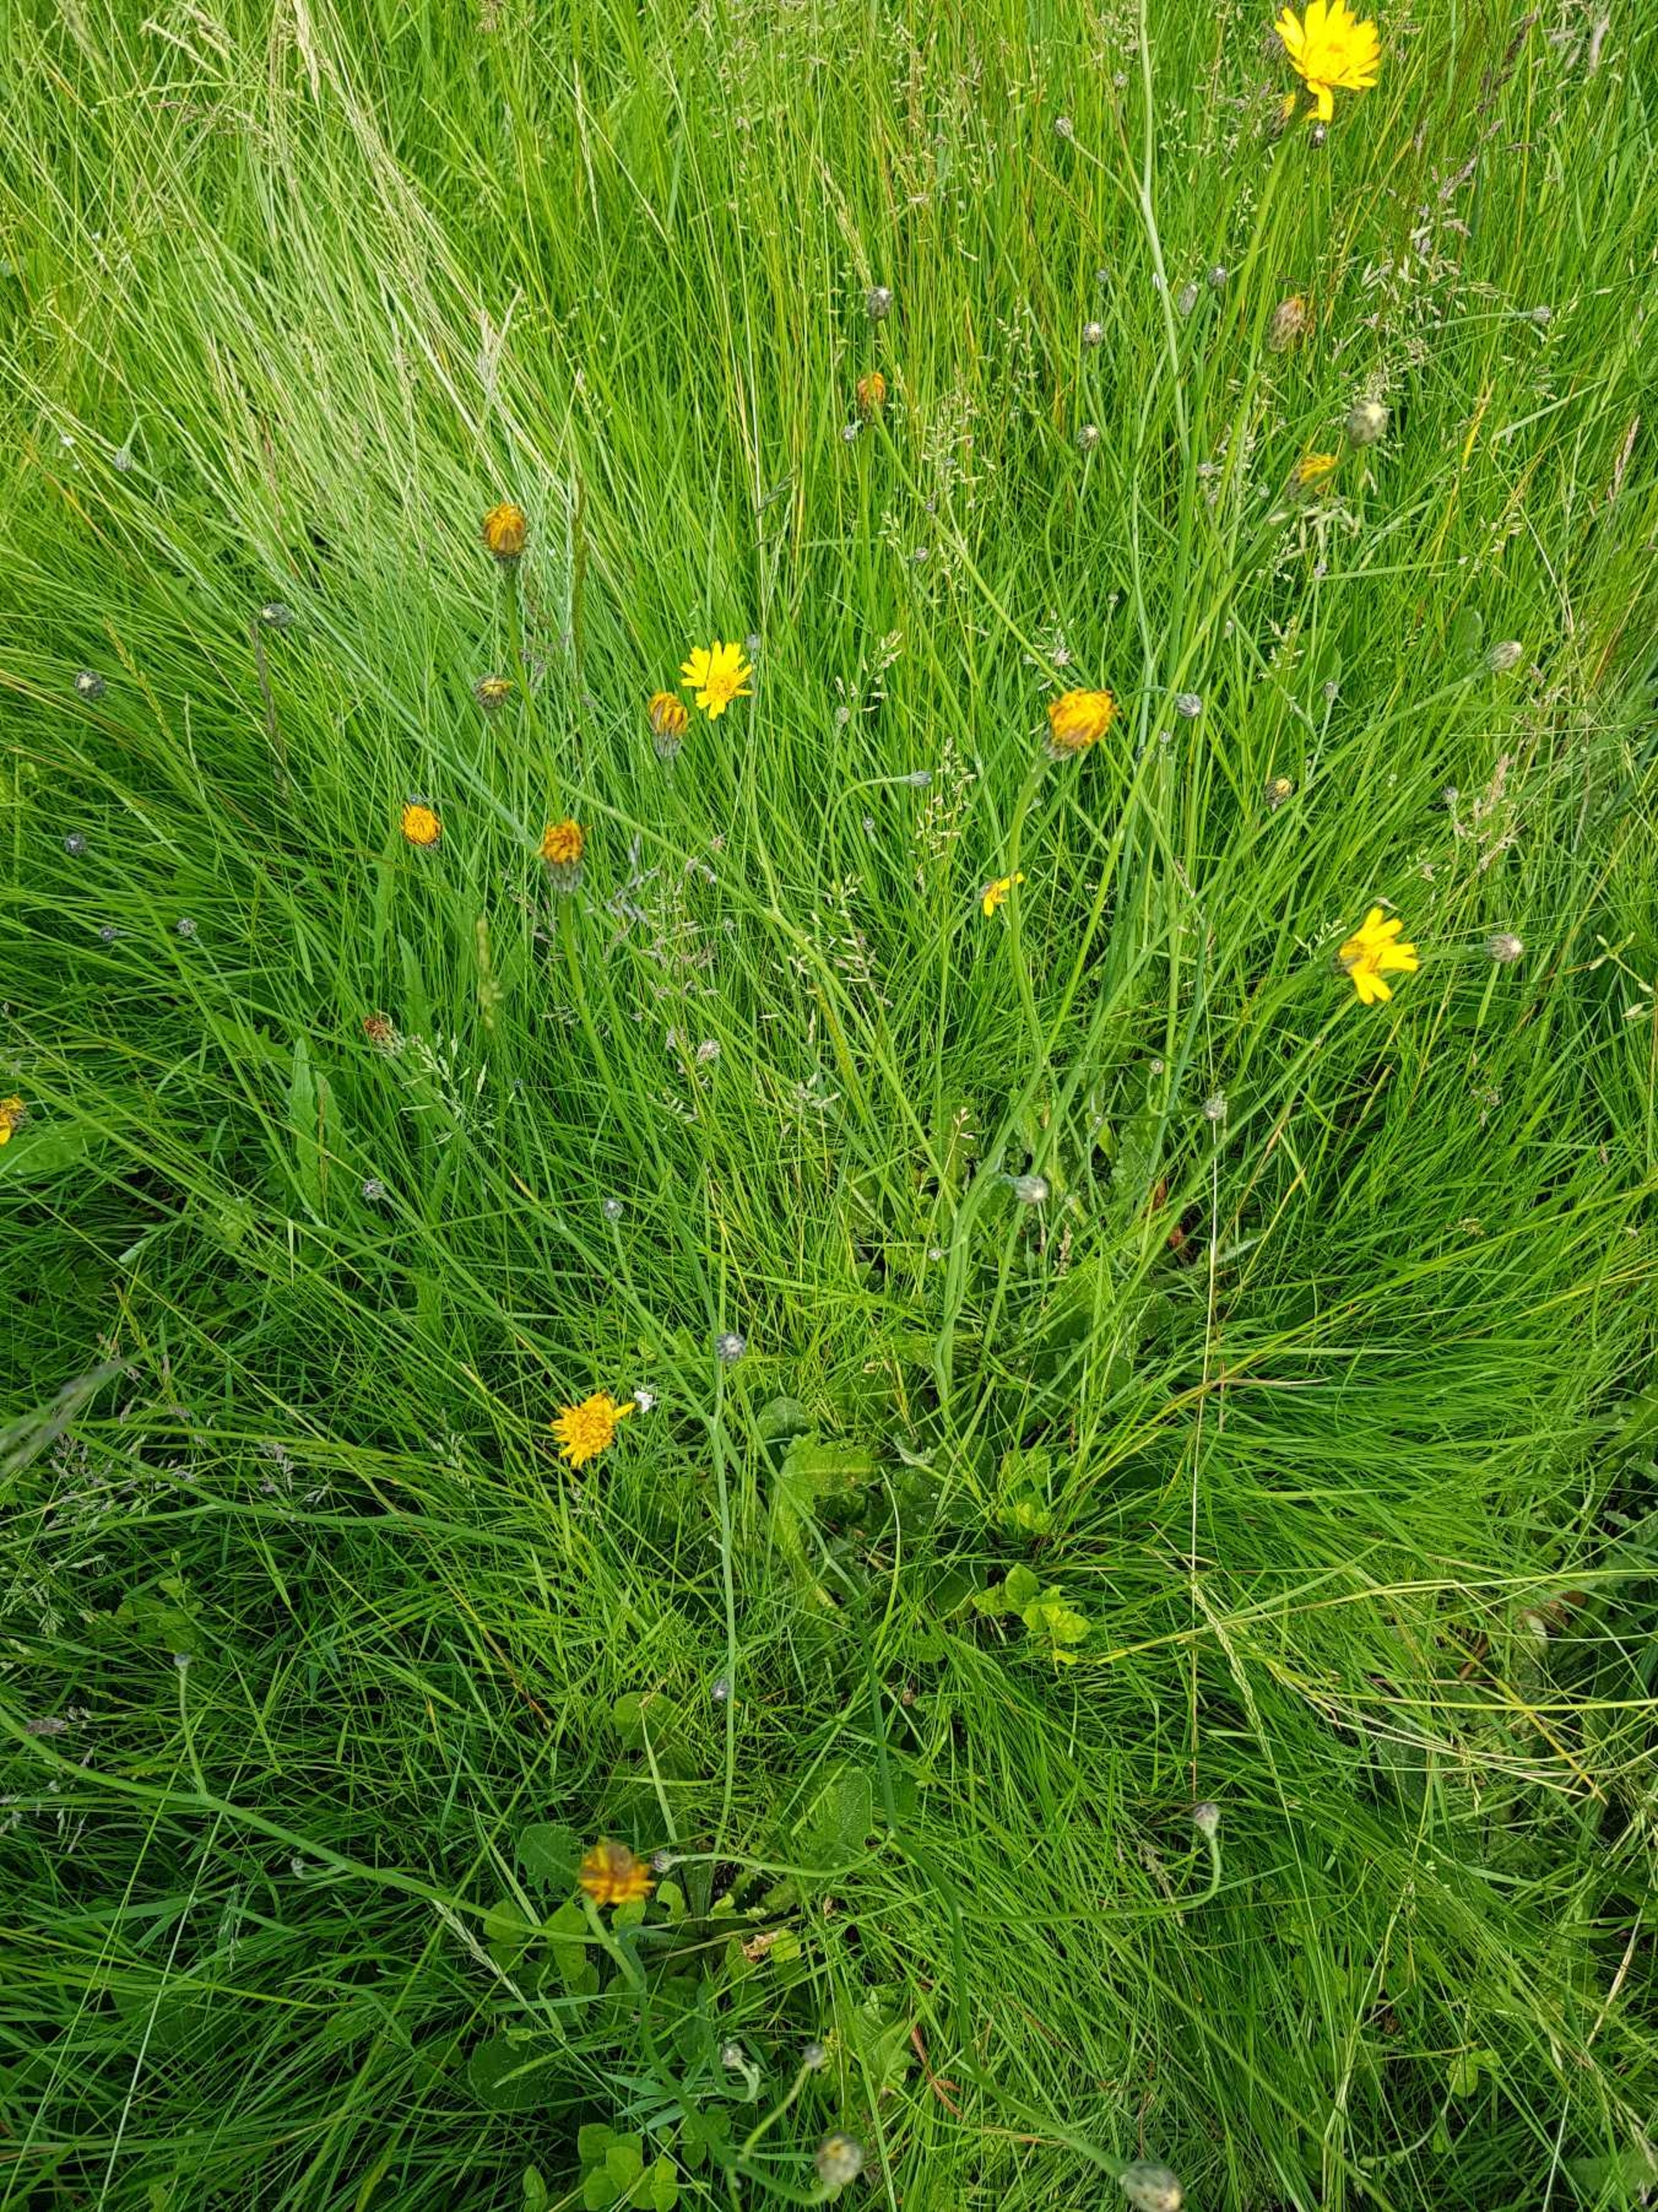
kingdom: Plantae
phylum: Tracheophyta
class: Magnoliopsida
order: Asterales
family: Asteraceae
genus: Hypochaeris
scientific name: Hypochaeris radicata
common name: Almindelig kongepen
